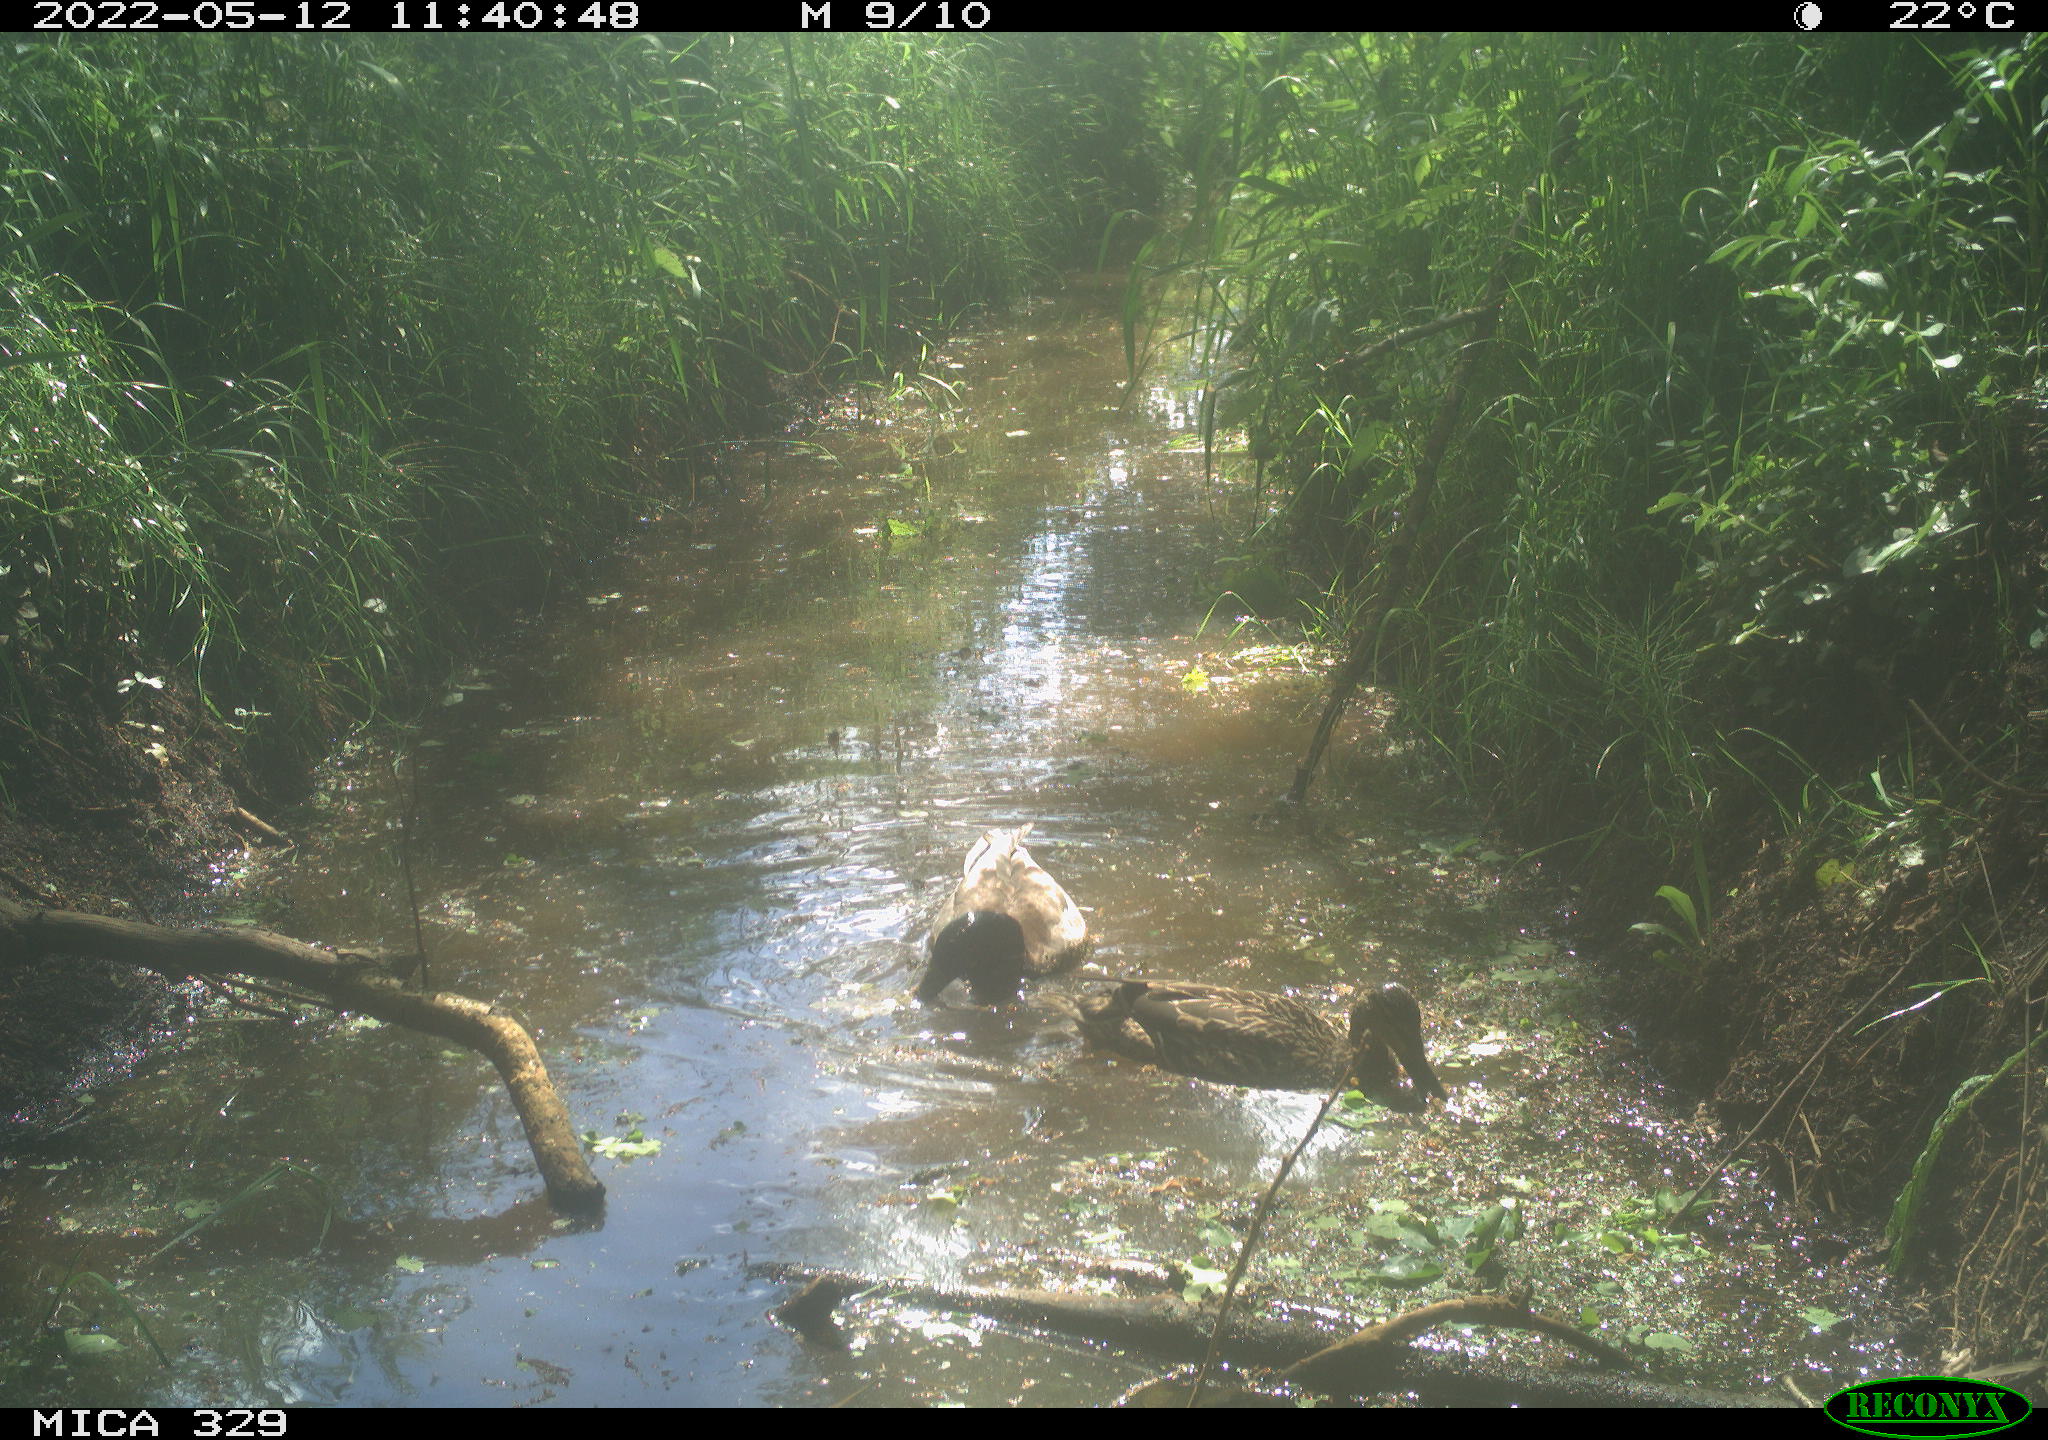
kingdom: Animalia
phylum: Chordata
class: Aves
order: Anseriformes
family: Anatidae
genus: Anas
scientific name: Anas platyrhynchos
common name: Mallard
